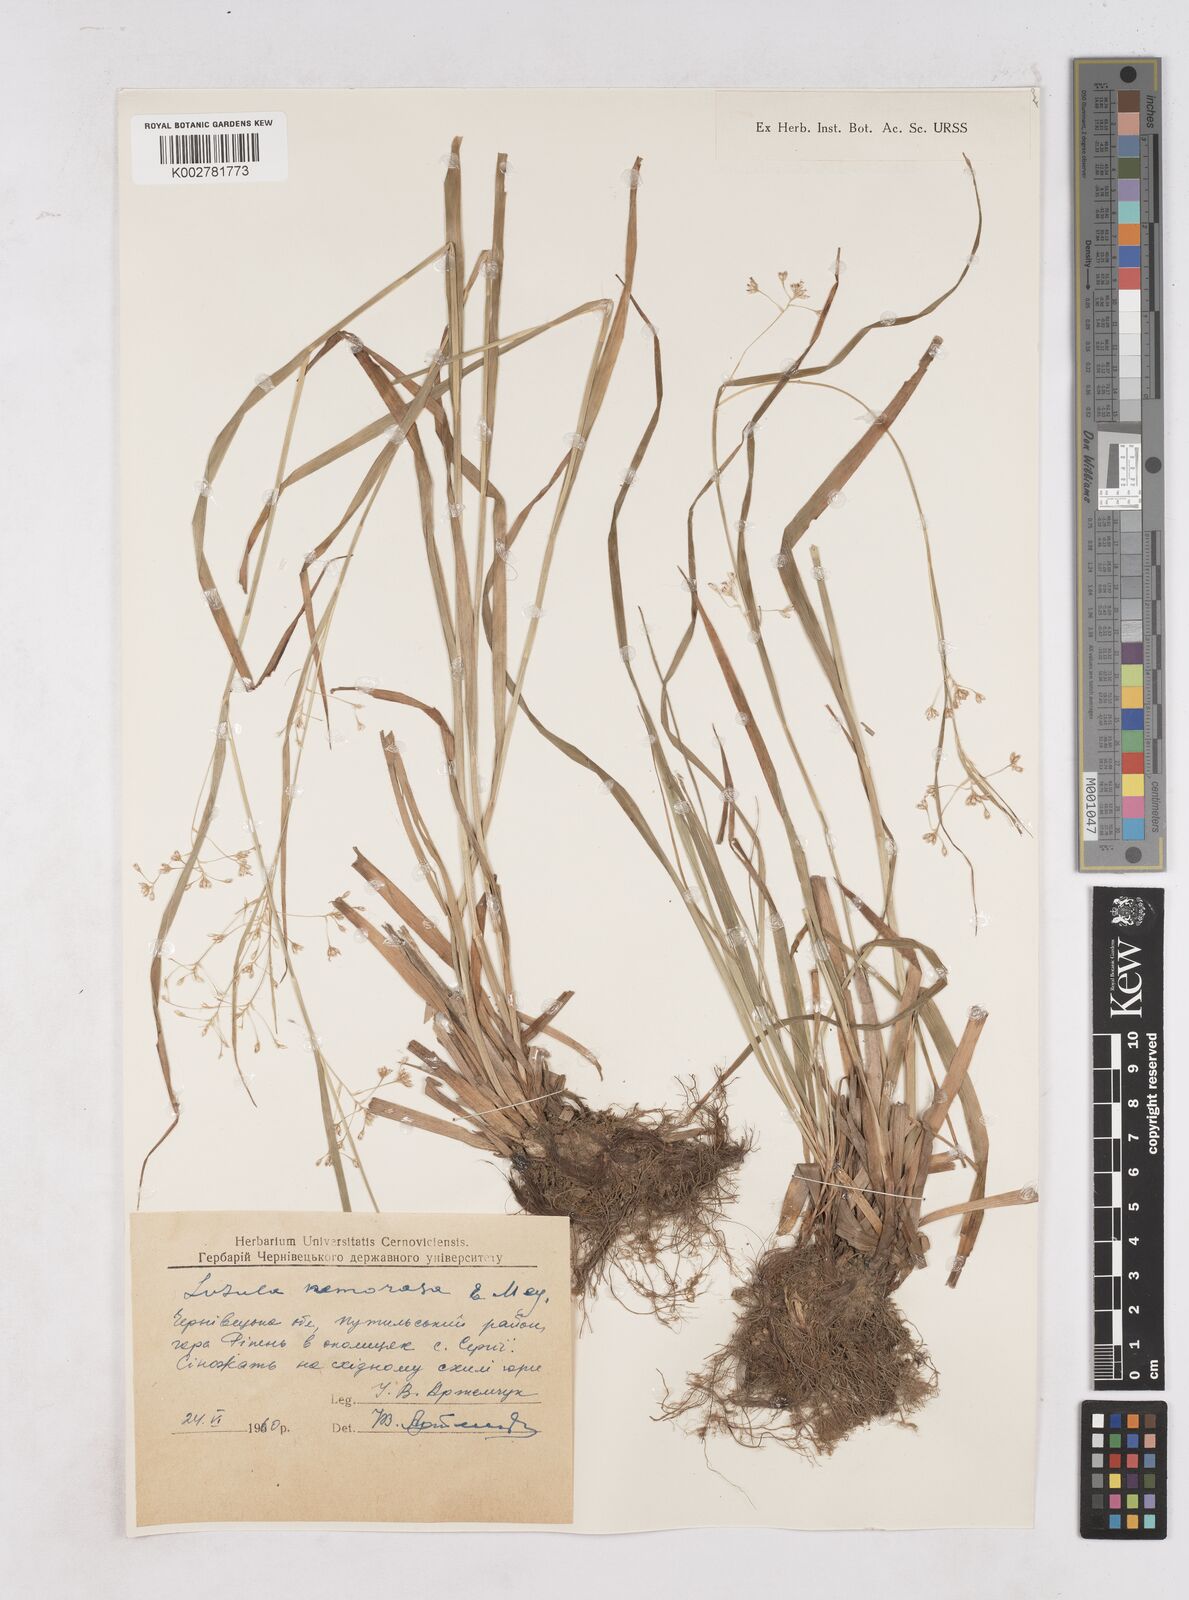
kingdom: Plantae
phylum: Tracheophyta
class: Liliopsida
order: Poales
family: Juncaceae
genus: Luzula
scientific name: Luzula luzuloides
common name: White wood-rush
